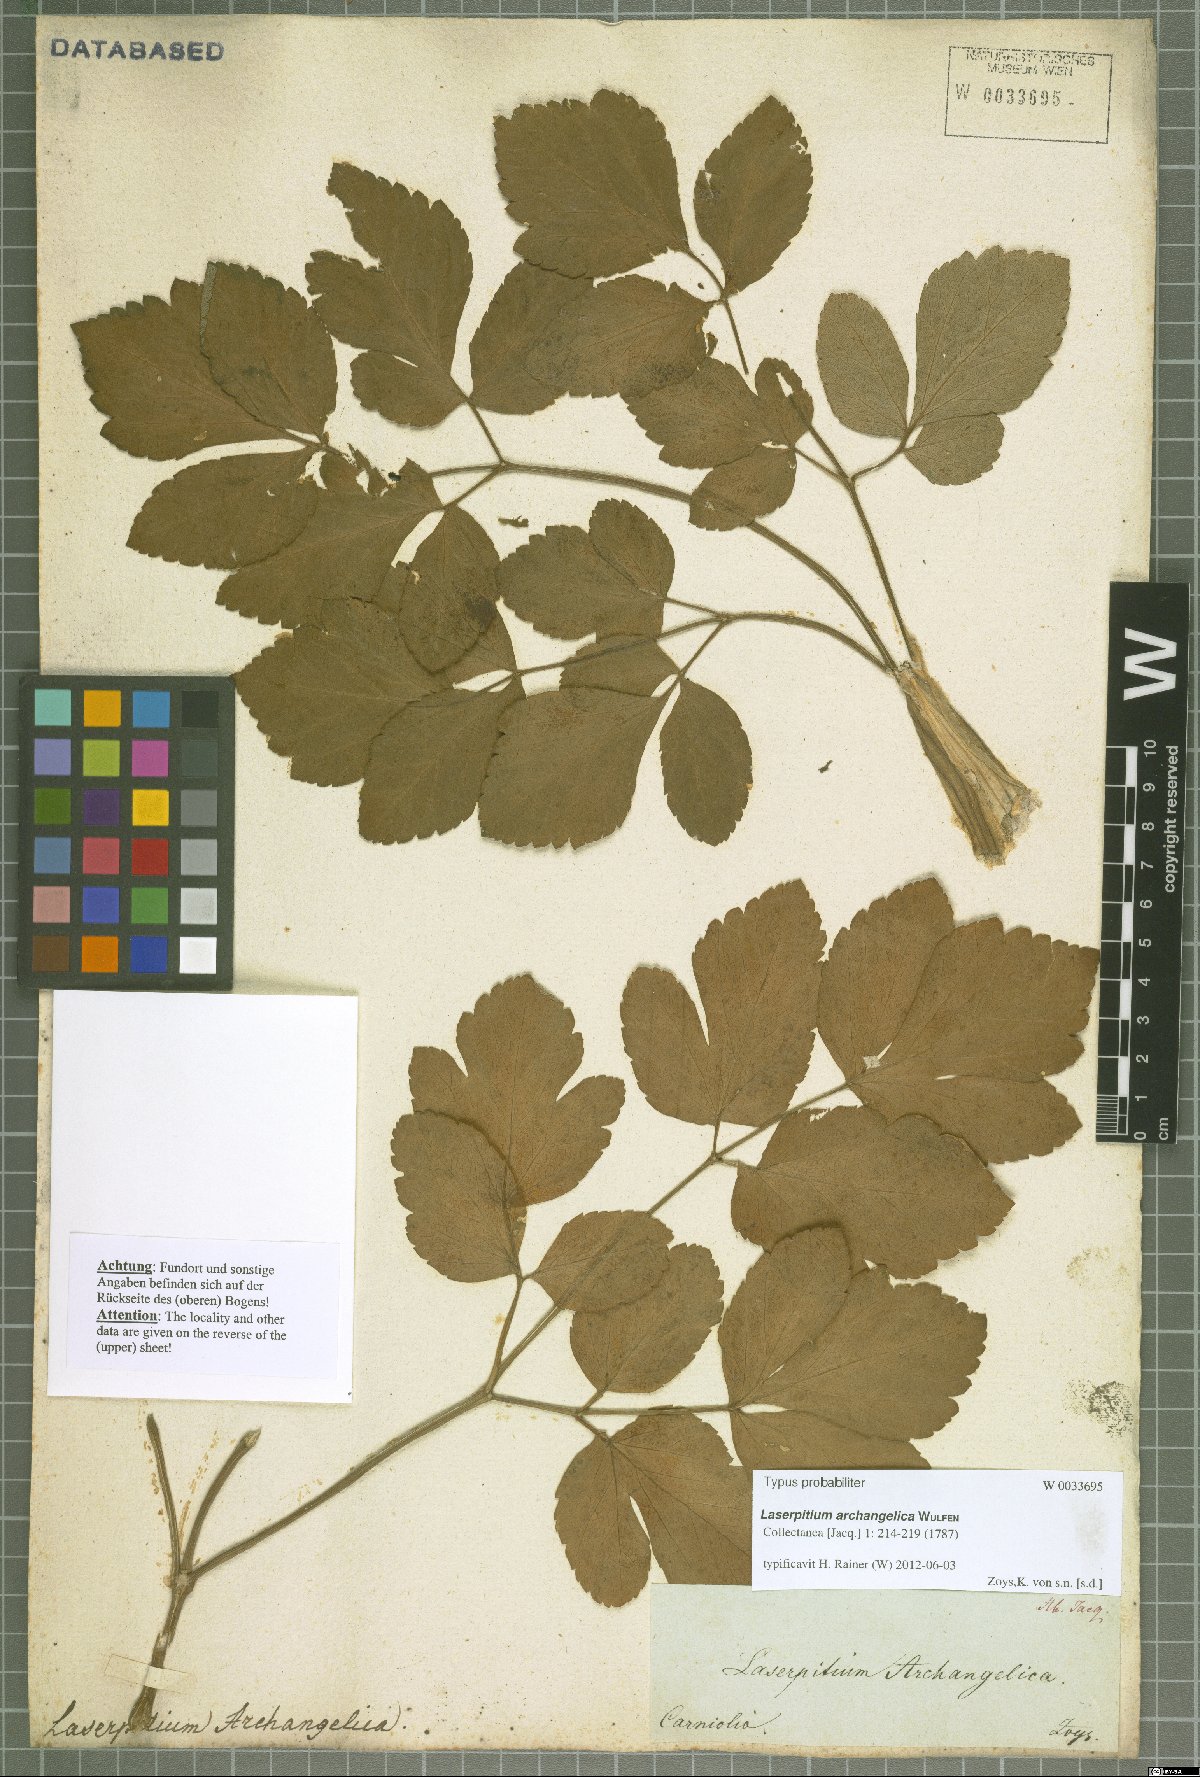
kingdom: Plantae
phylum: Tracheophyta
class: Magnoliopsida
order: Apiales
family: Apiaceae
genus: Laser
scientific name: Laser archangelica
